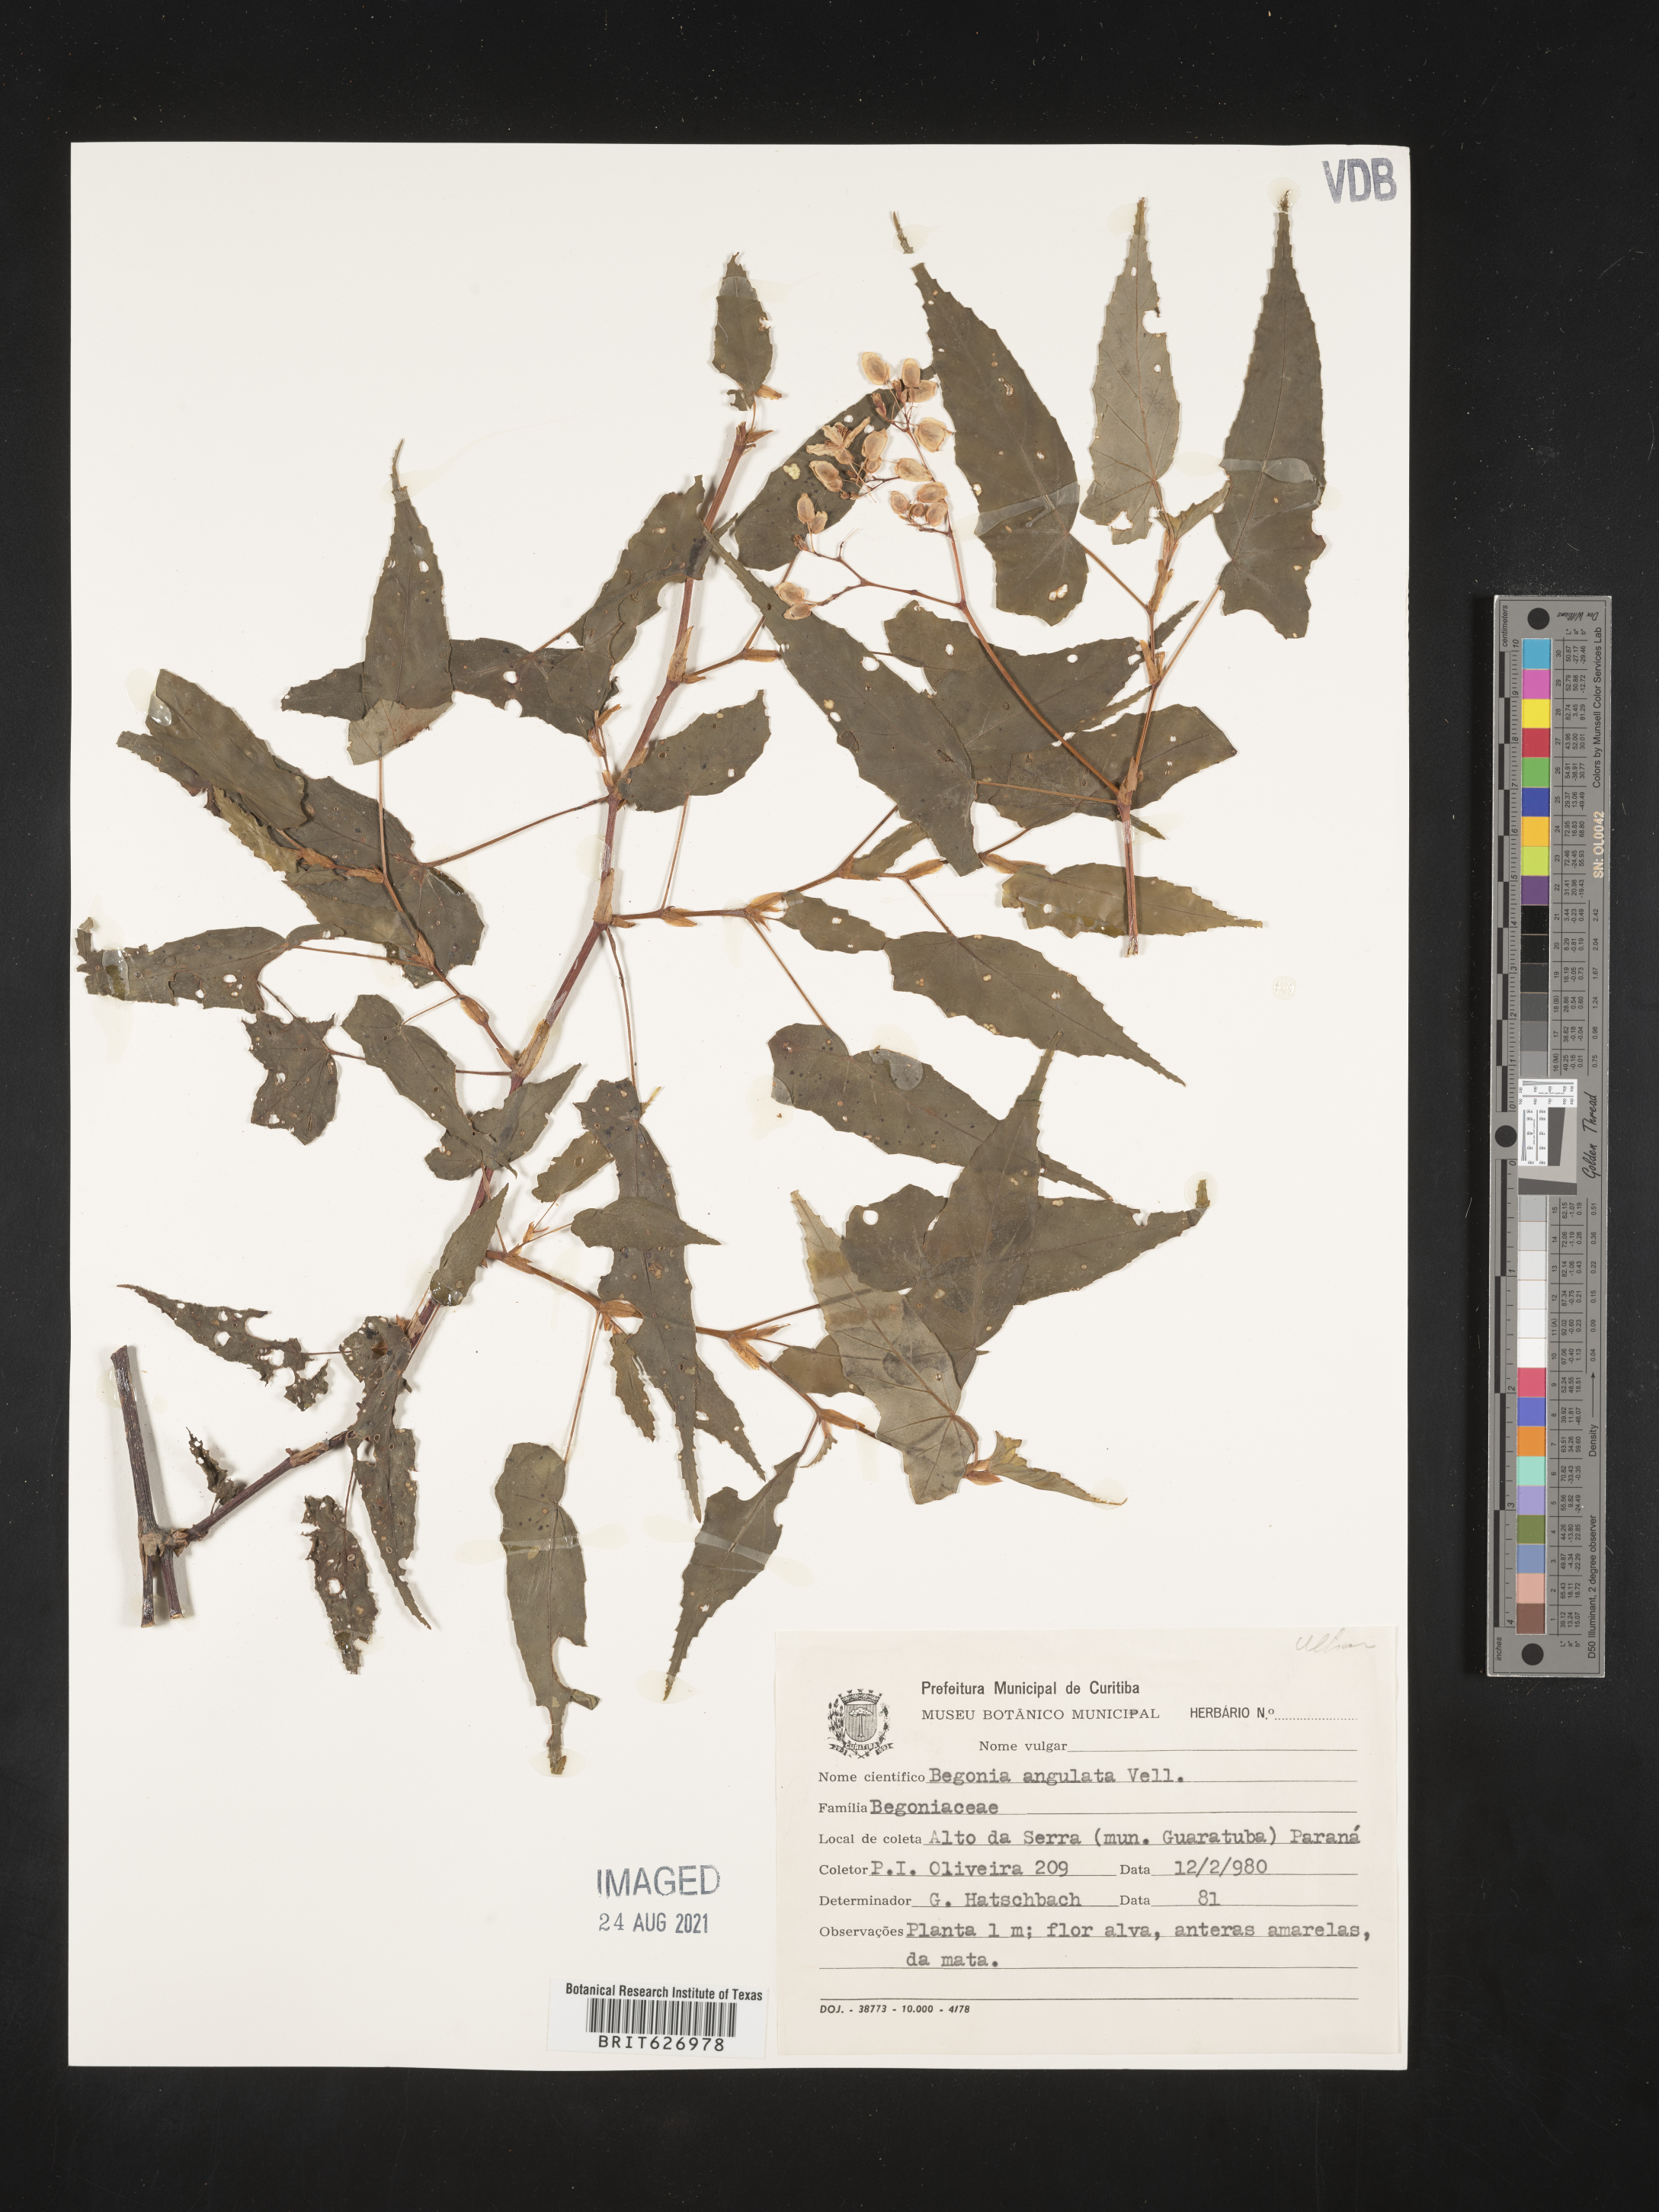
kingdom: Plantae
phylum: Tracheophyta
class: Magnoliopsida
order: Cucurbitales
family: Begoniaceae
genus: Begonia
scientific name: Begonia angulata
